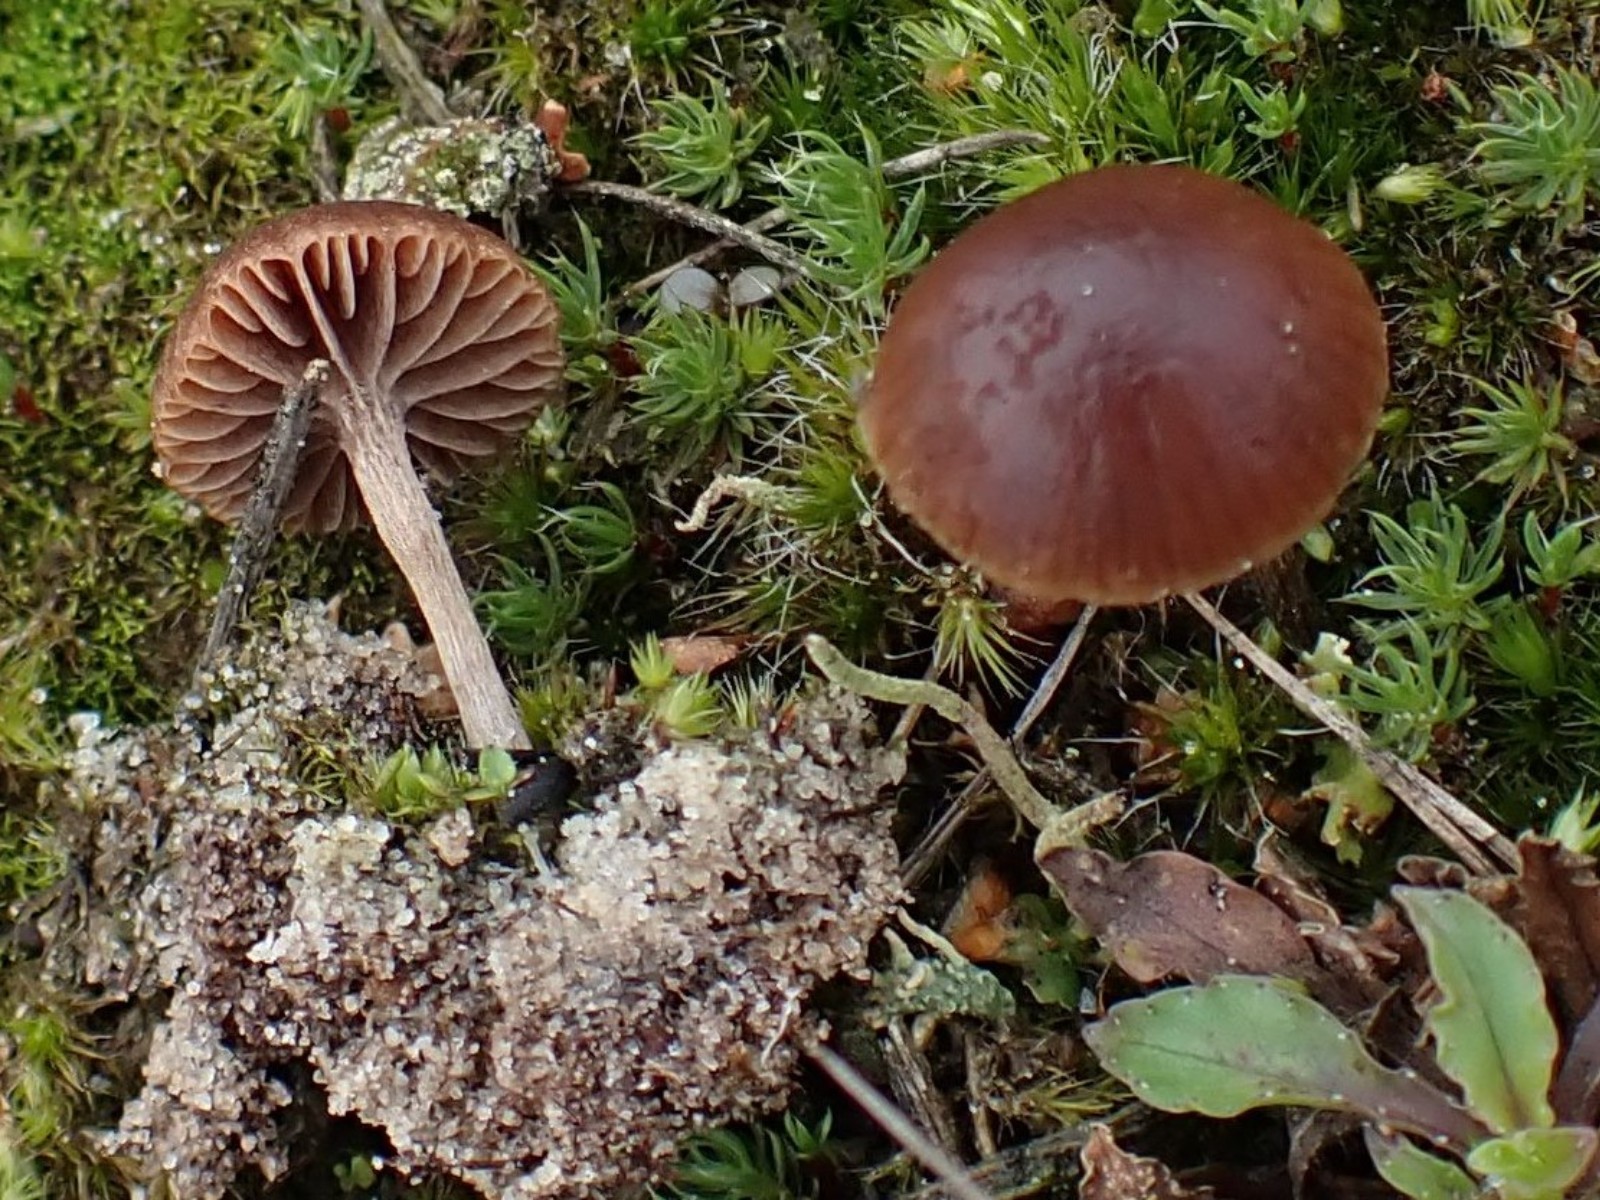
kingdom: Fungi
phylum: Basidiomycota
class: Agaricomycetes
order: Agaricales
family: Strophariaceae
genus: Deconica
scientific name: Deconica montana
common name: rødbrun stråhat
